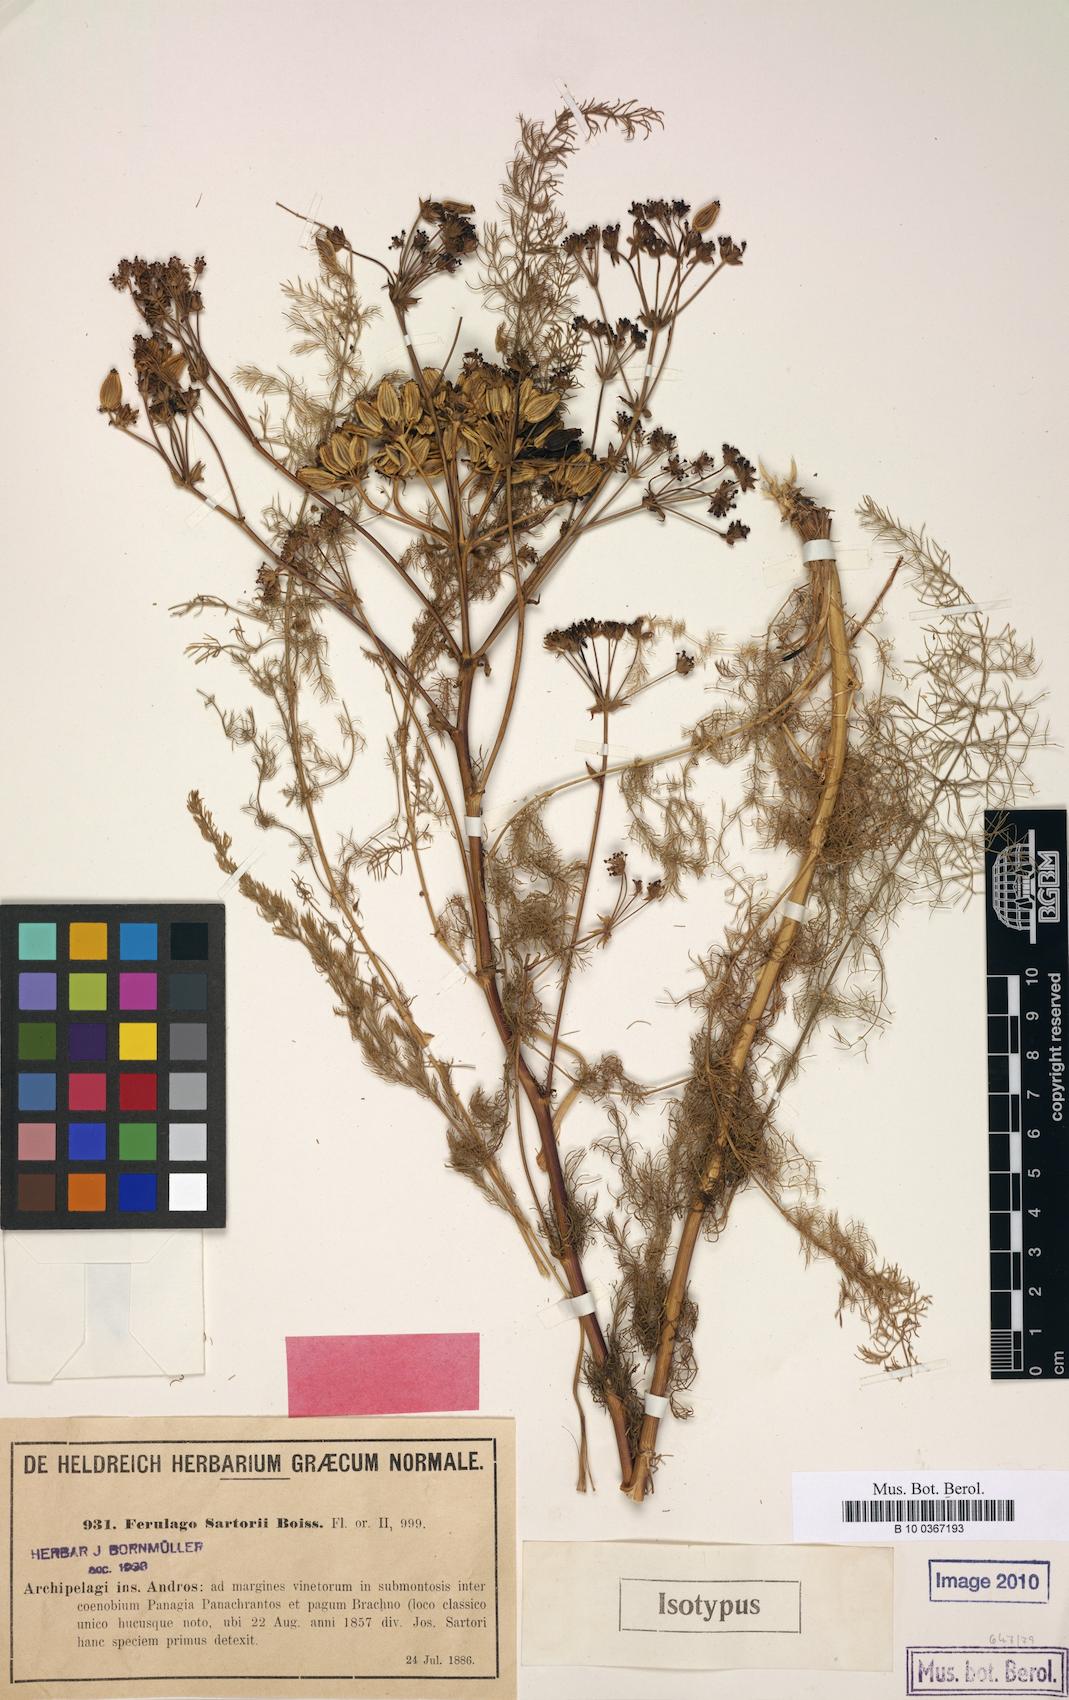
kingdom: Plantae
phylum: Tracheophyta
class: Magnoliopsida
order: Apiales
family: Apiaceae
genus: Ferulago
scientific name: Ferulago sartorii
